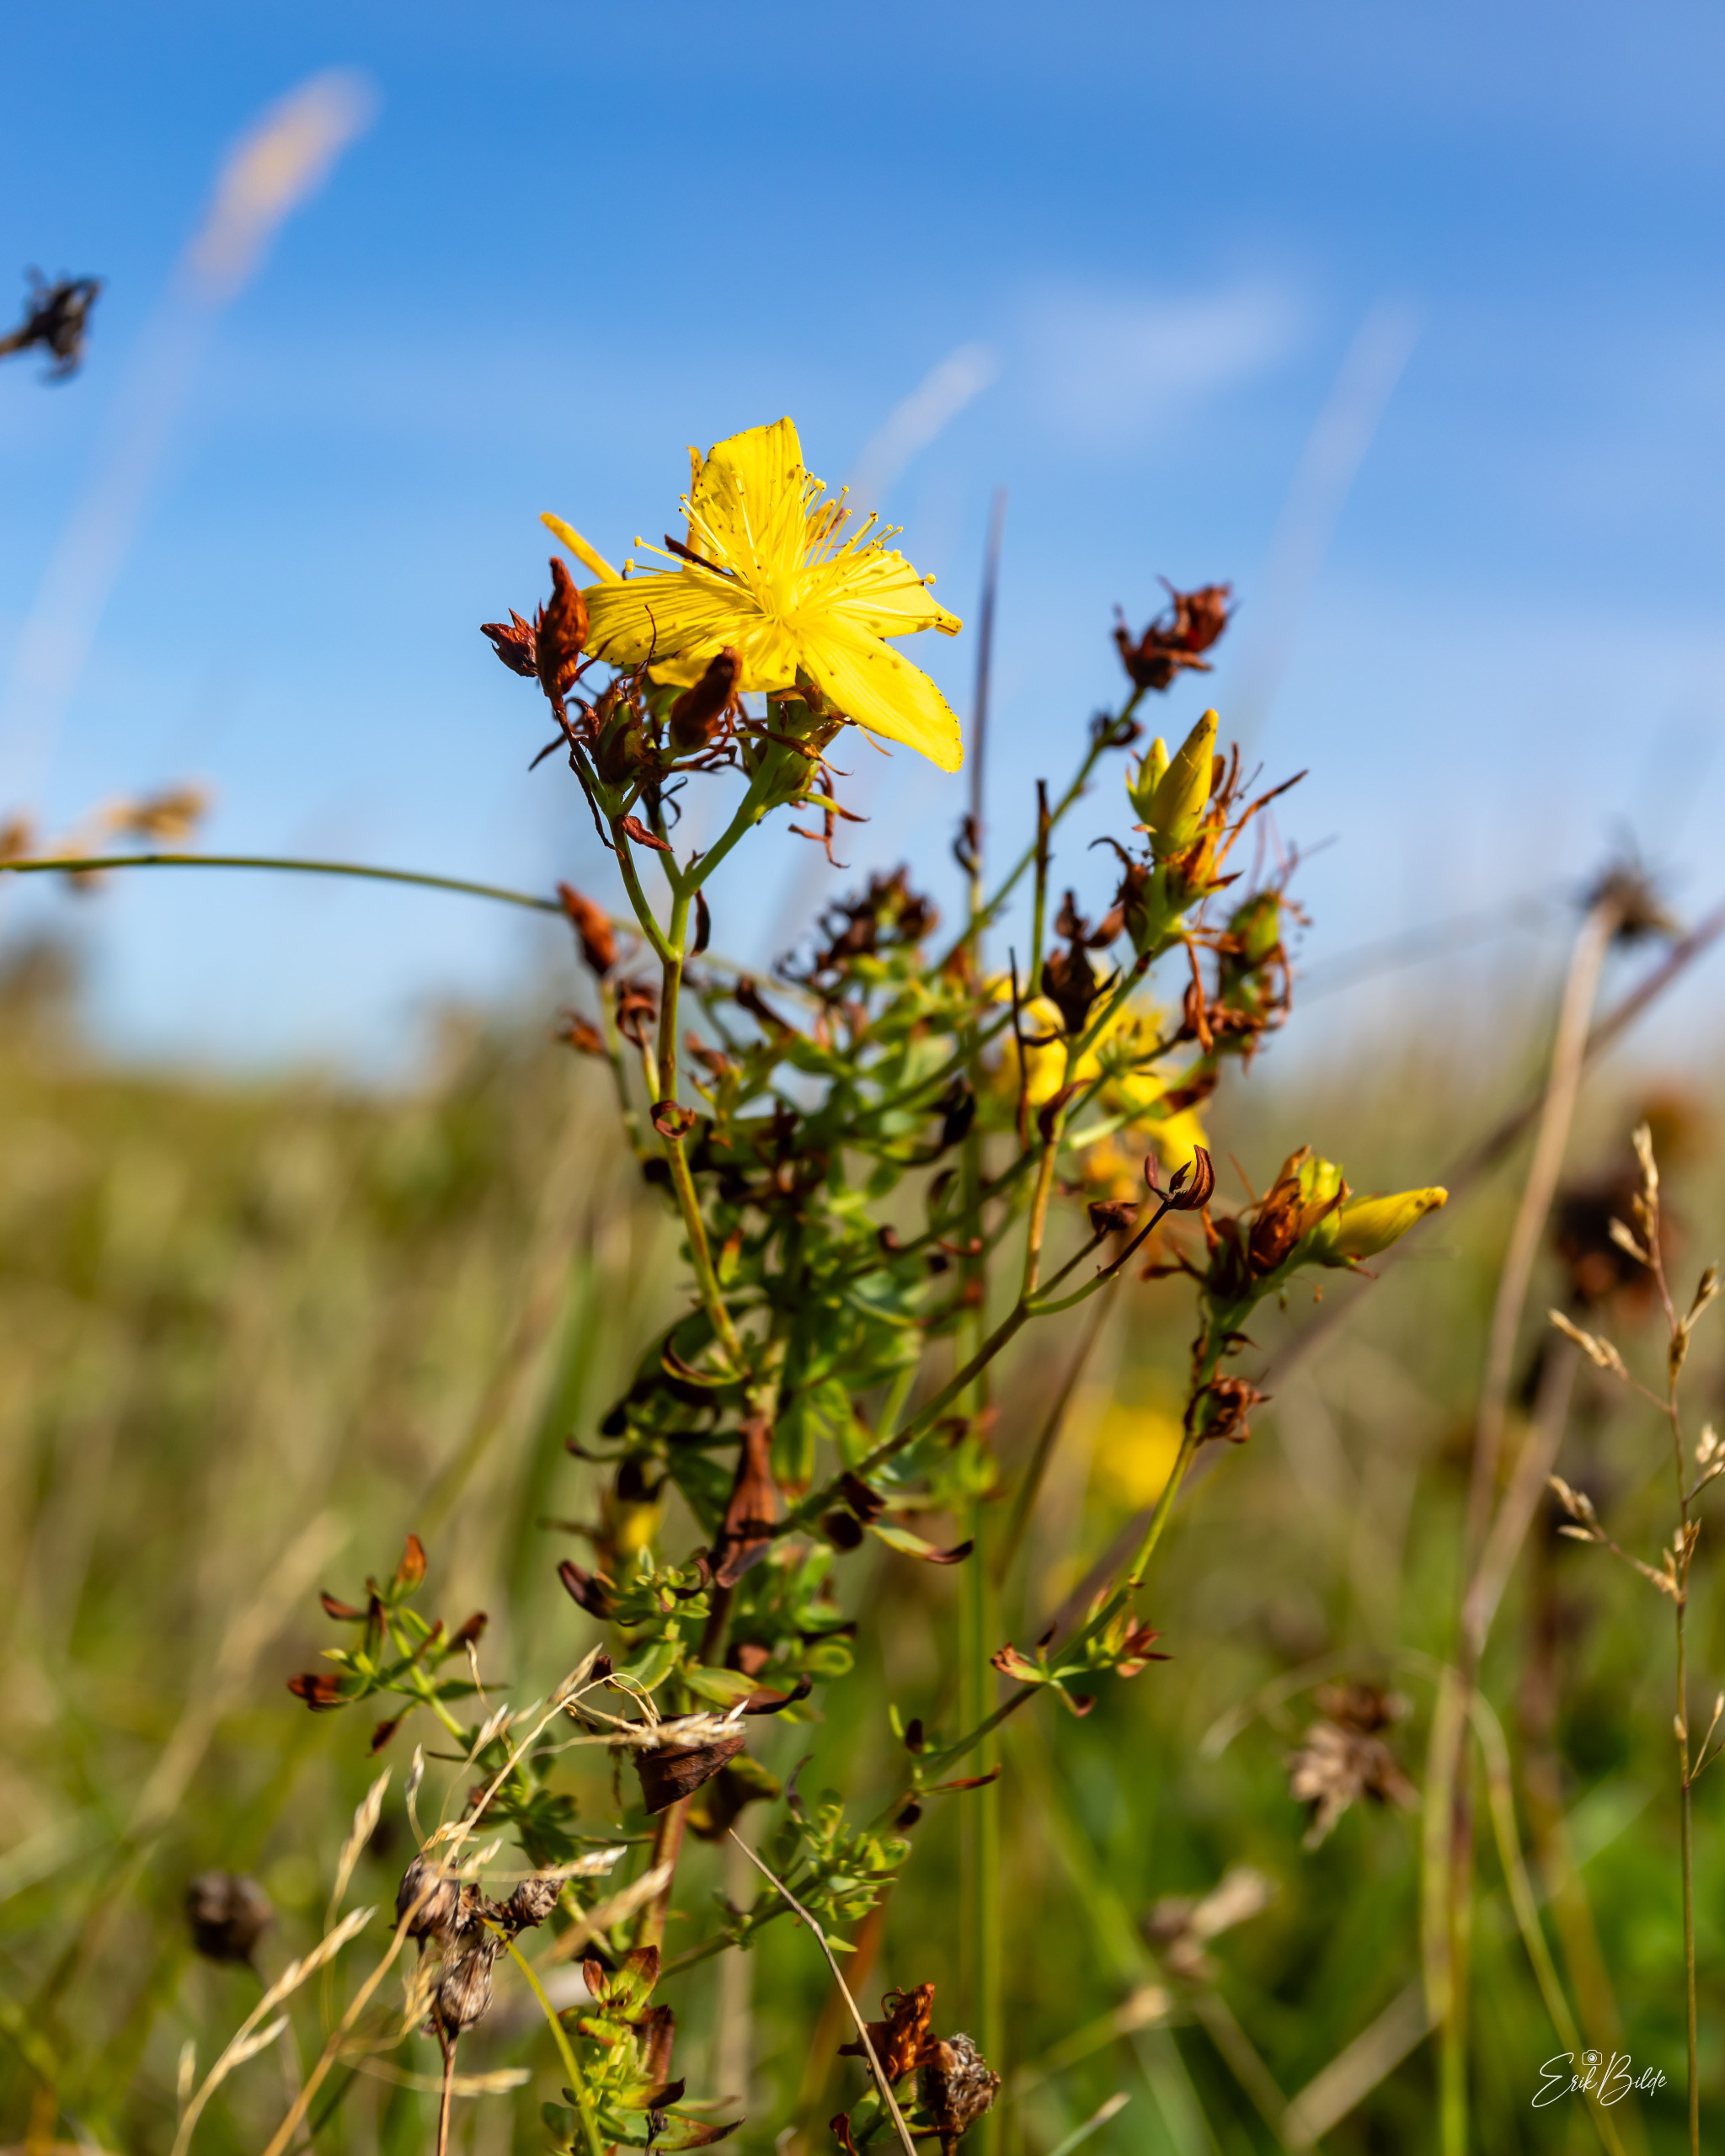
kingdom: Plantae
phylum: Tracheophyta
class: Magnoliopsida
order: Malpighiales
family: Hypericaceae
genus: Hypericum
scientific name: Hypericum perforatum
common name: Prikbladet perikon
